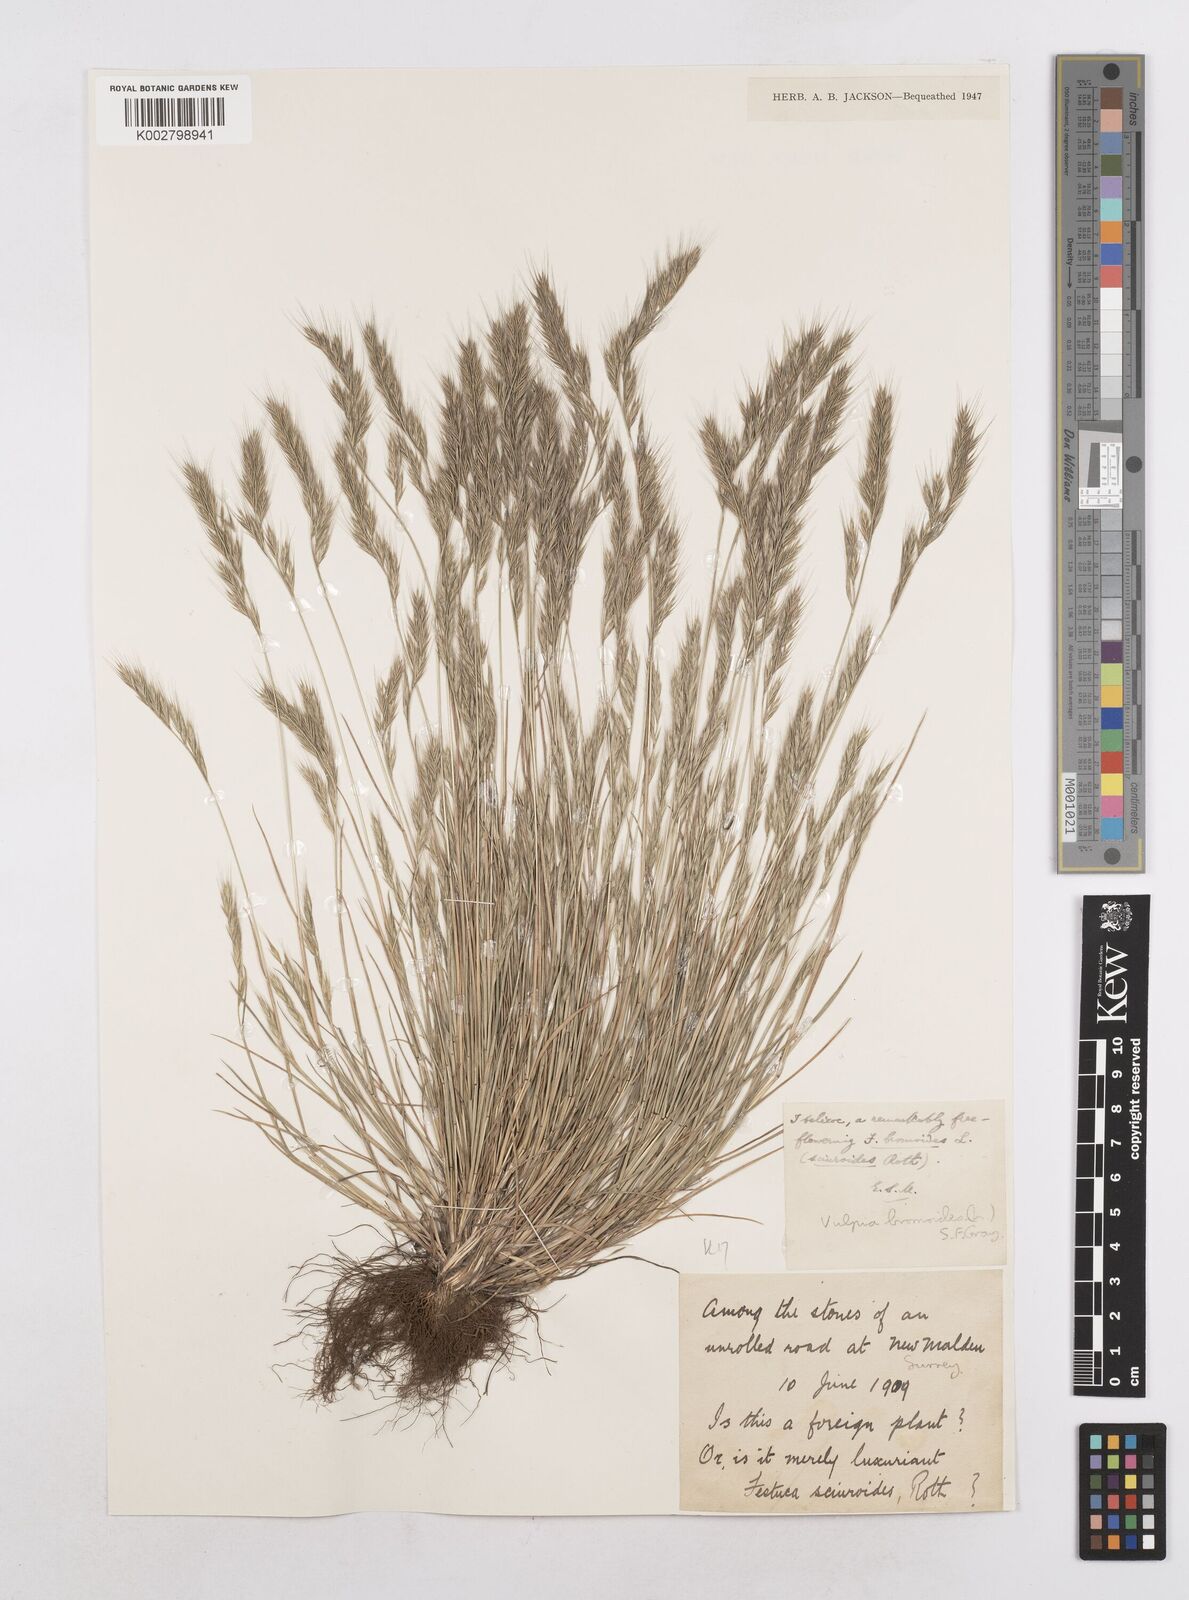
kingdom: Plantae
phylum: Tracheophyta
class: Liliopsida
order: Poales
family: Poaceae
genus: Festuca
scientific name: Festuca bromoides
